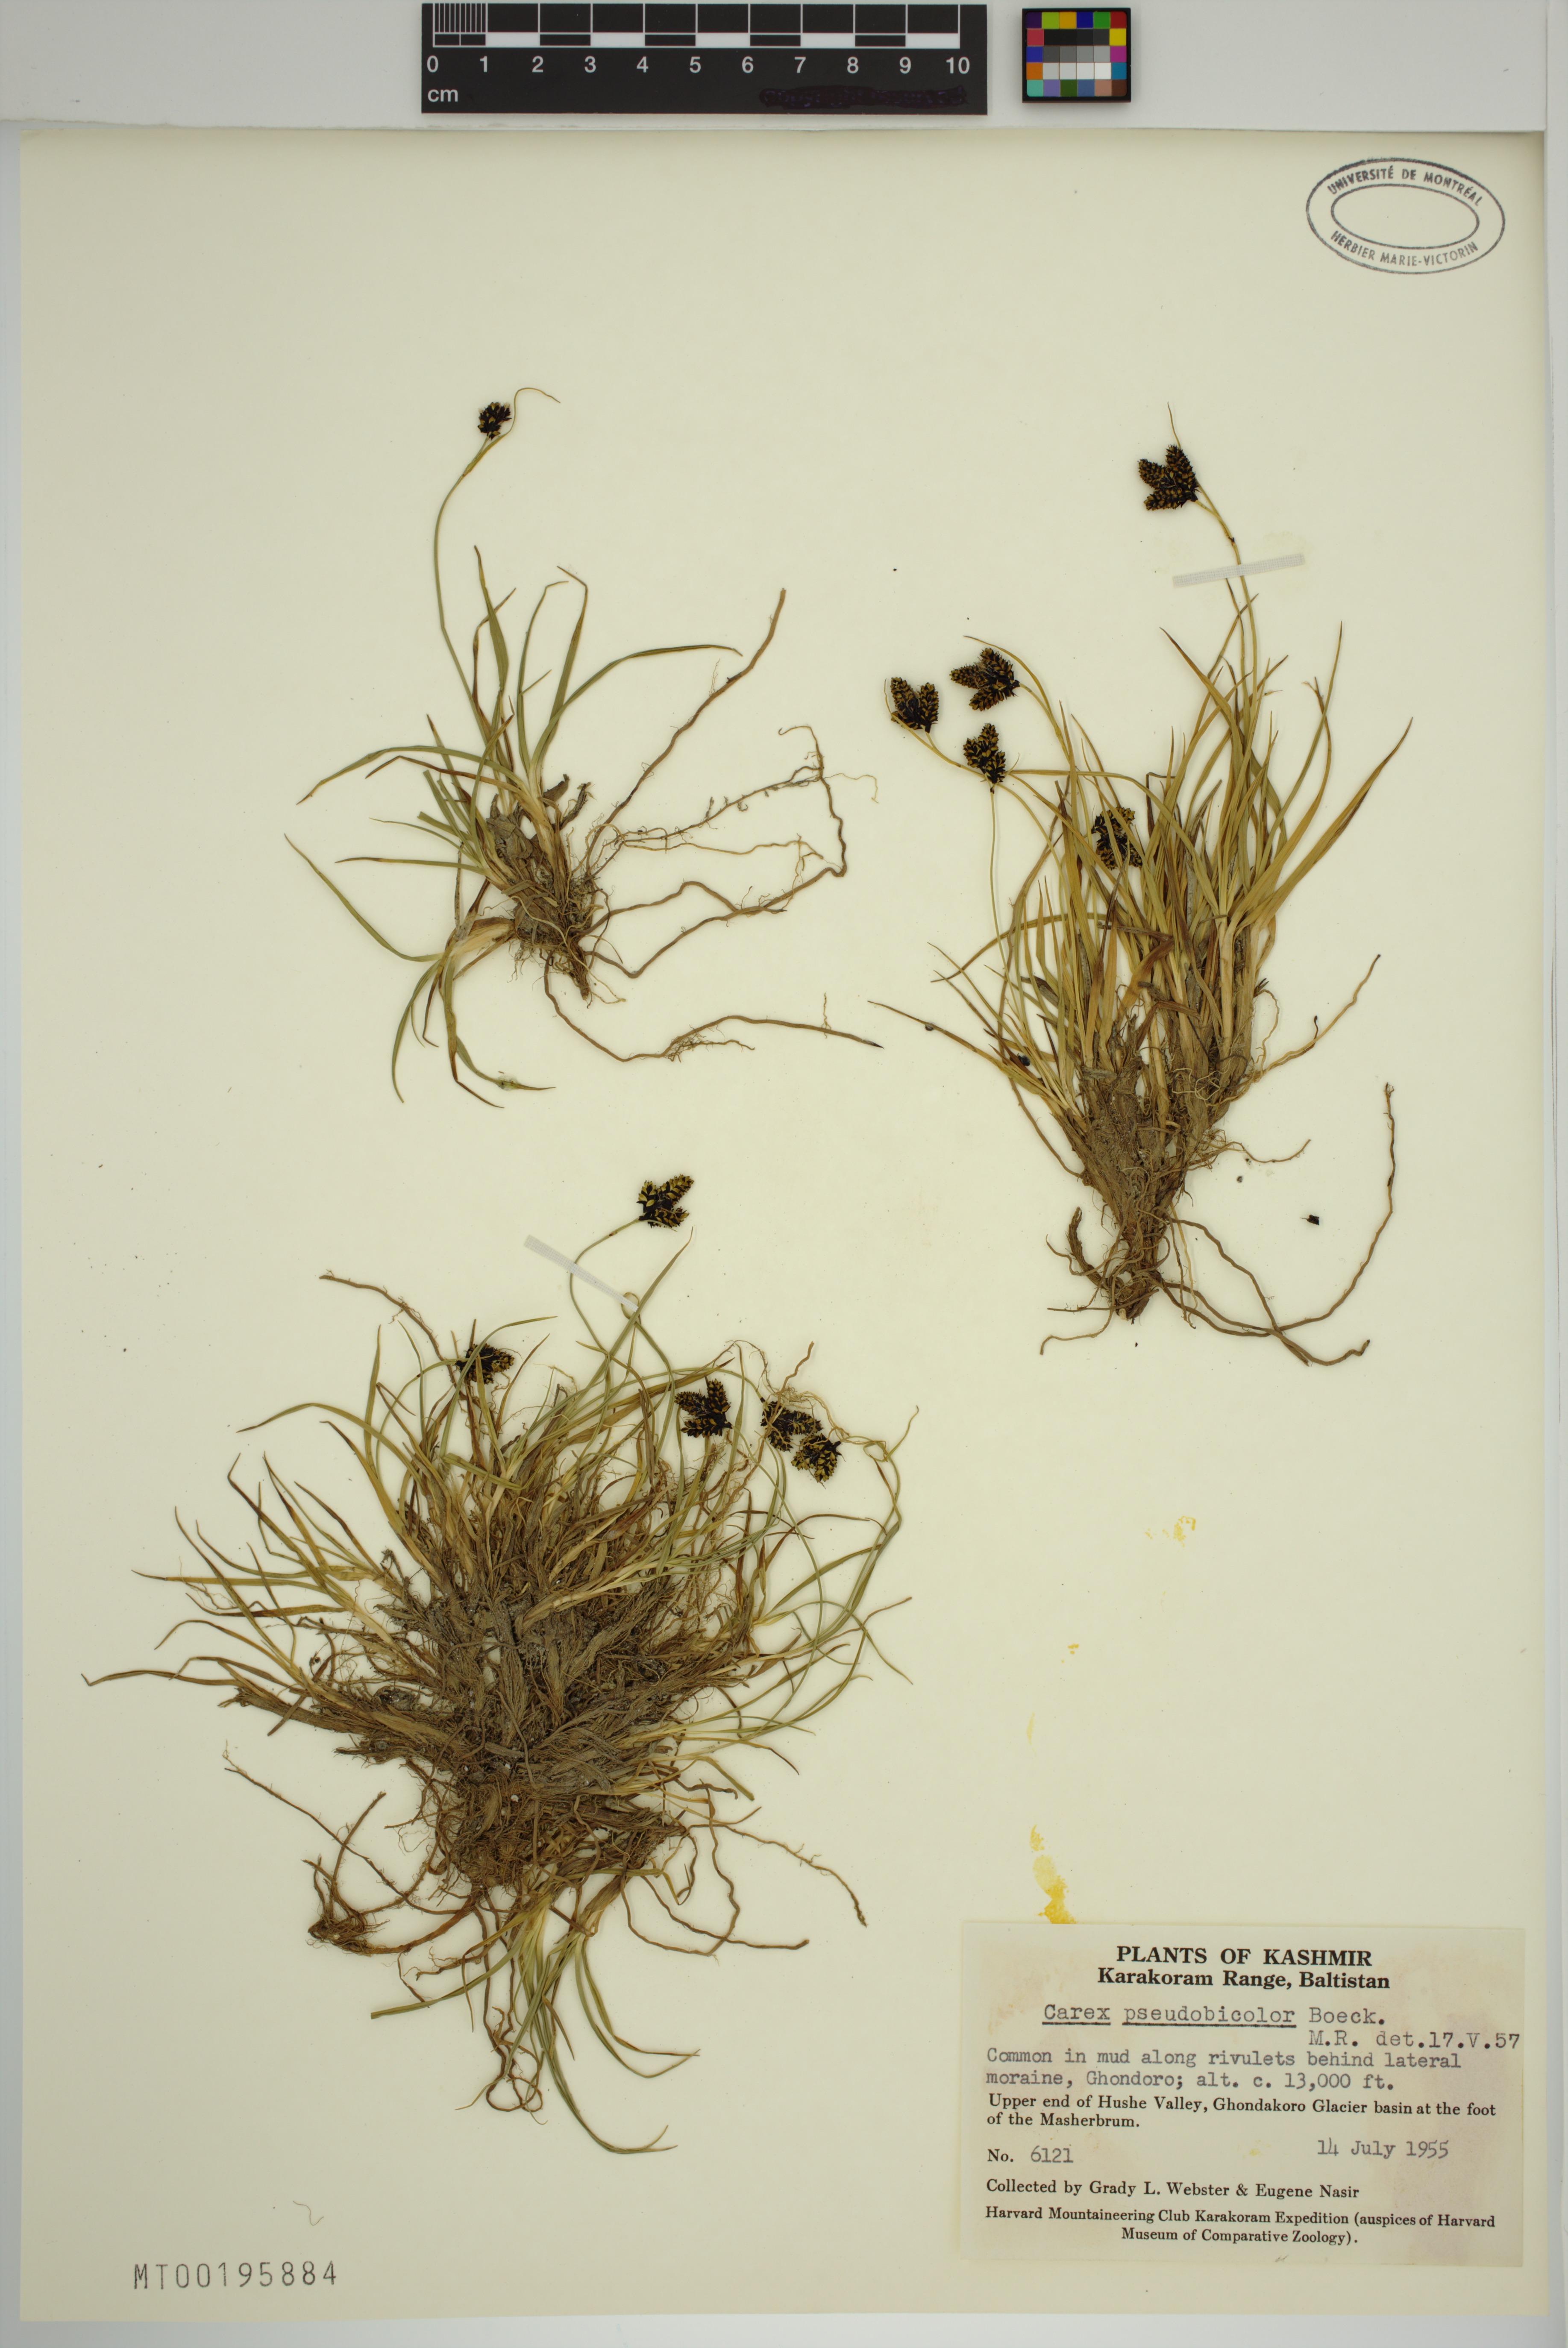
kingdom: Plantae
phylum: Tracheophyta
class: Liliopsida
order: Poales
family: Cyperaceae
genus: Carex
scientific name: Carex pseudobicolor
